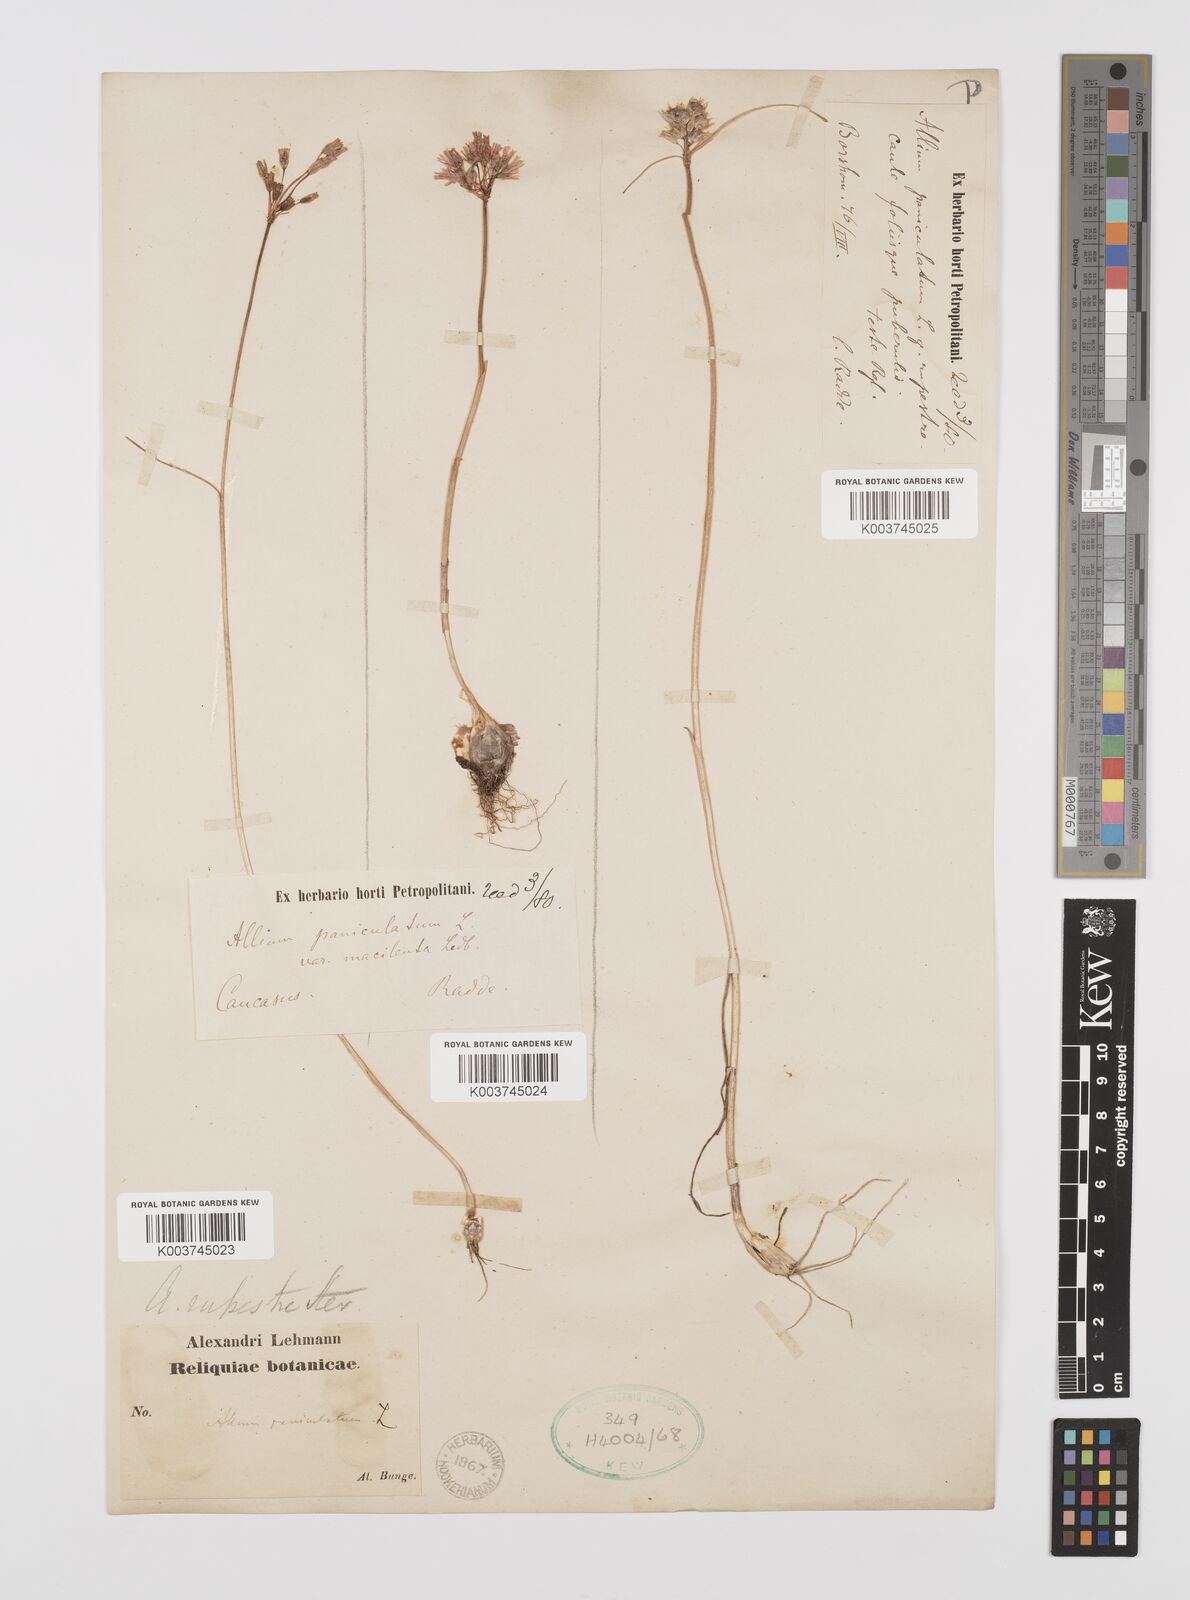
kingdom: Plantae
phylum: Tracheophyta
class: Liliopsida
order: Asparagales
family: Amaryllidaceae
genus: Allium
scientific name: Allium rupestre
